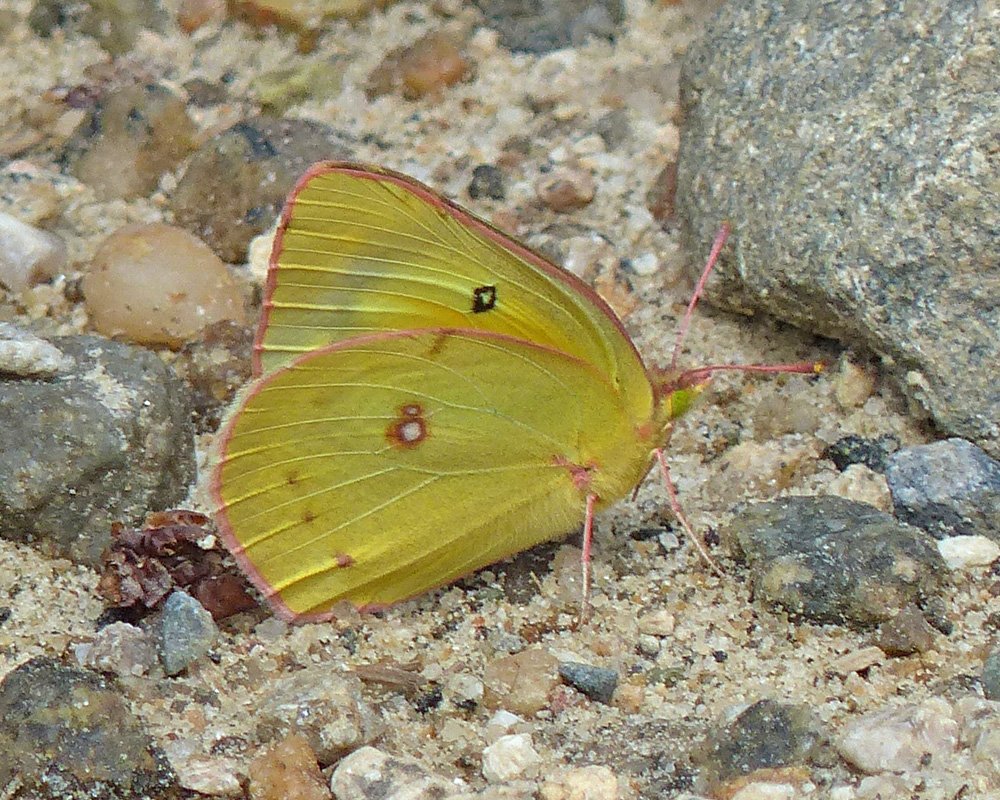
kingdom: Animalia
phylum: Arthropoda
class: Insecta
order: Lepidoptera
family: Pieridae
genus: Colias
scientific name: Colias philodice
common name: Clouded Sulphur
